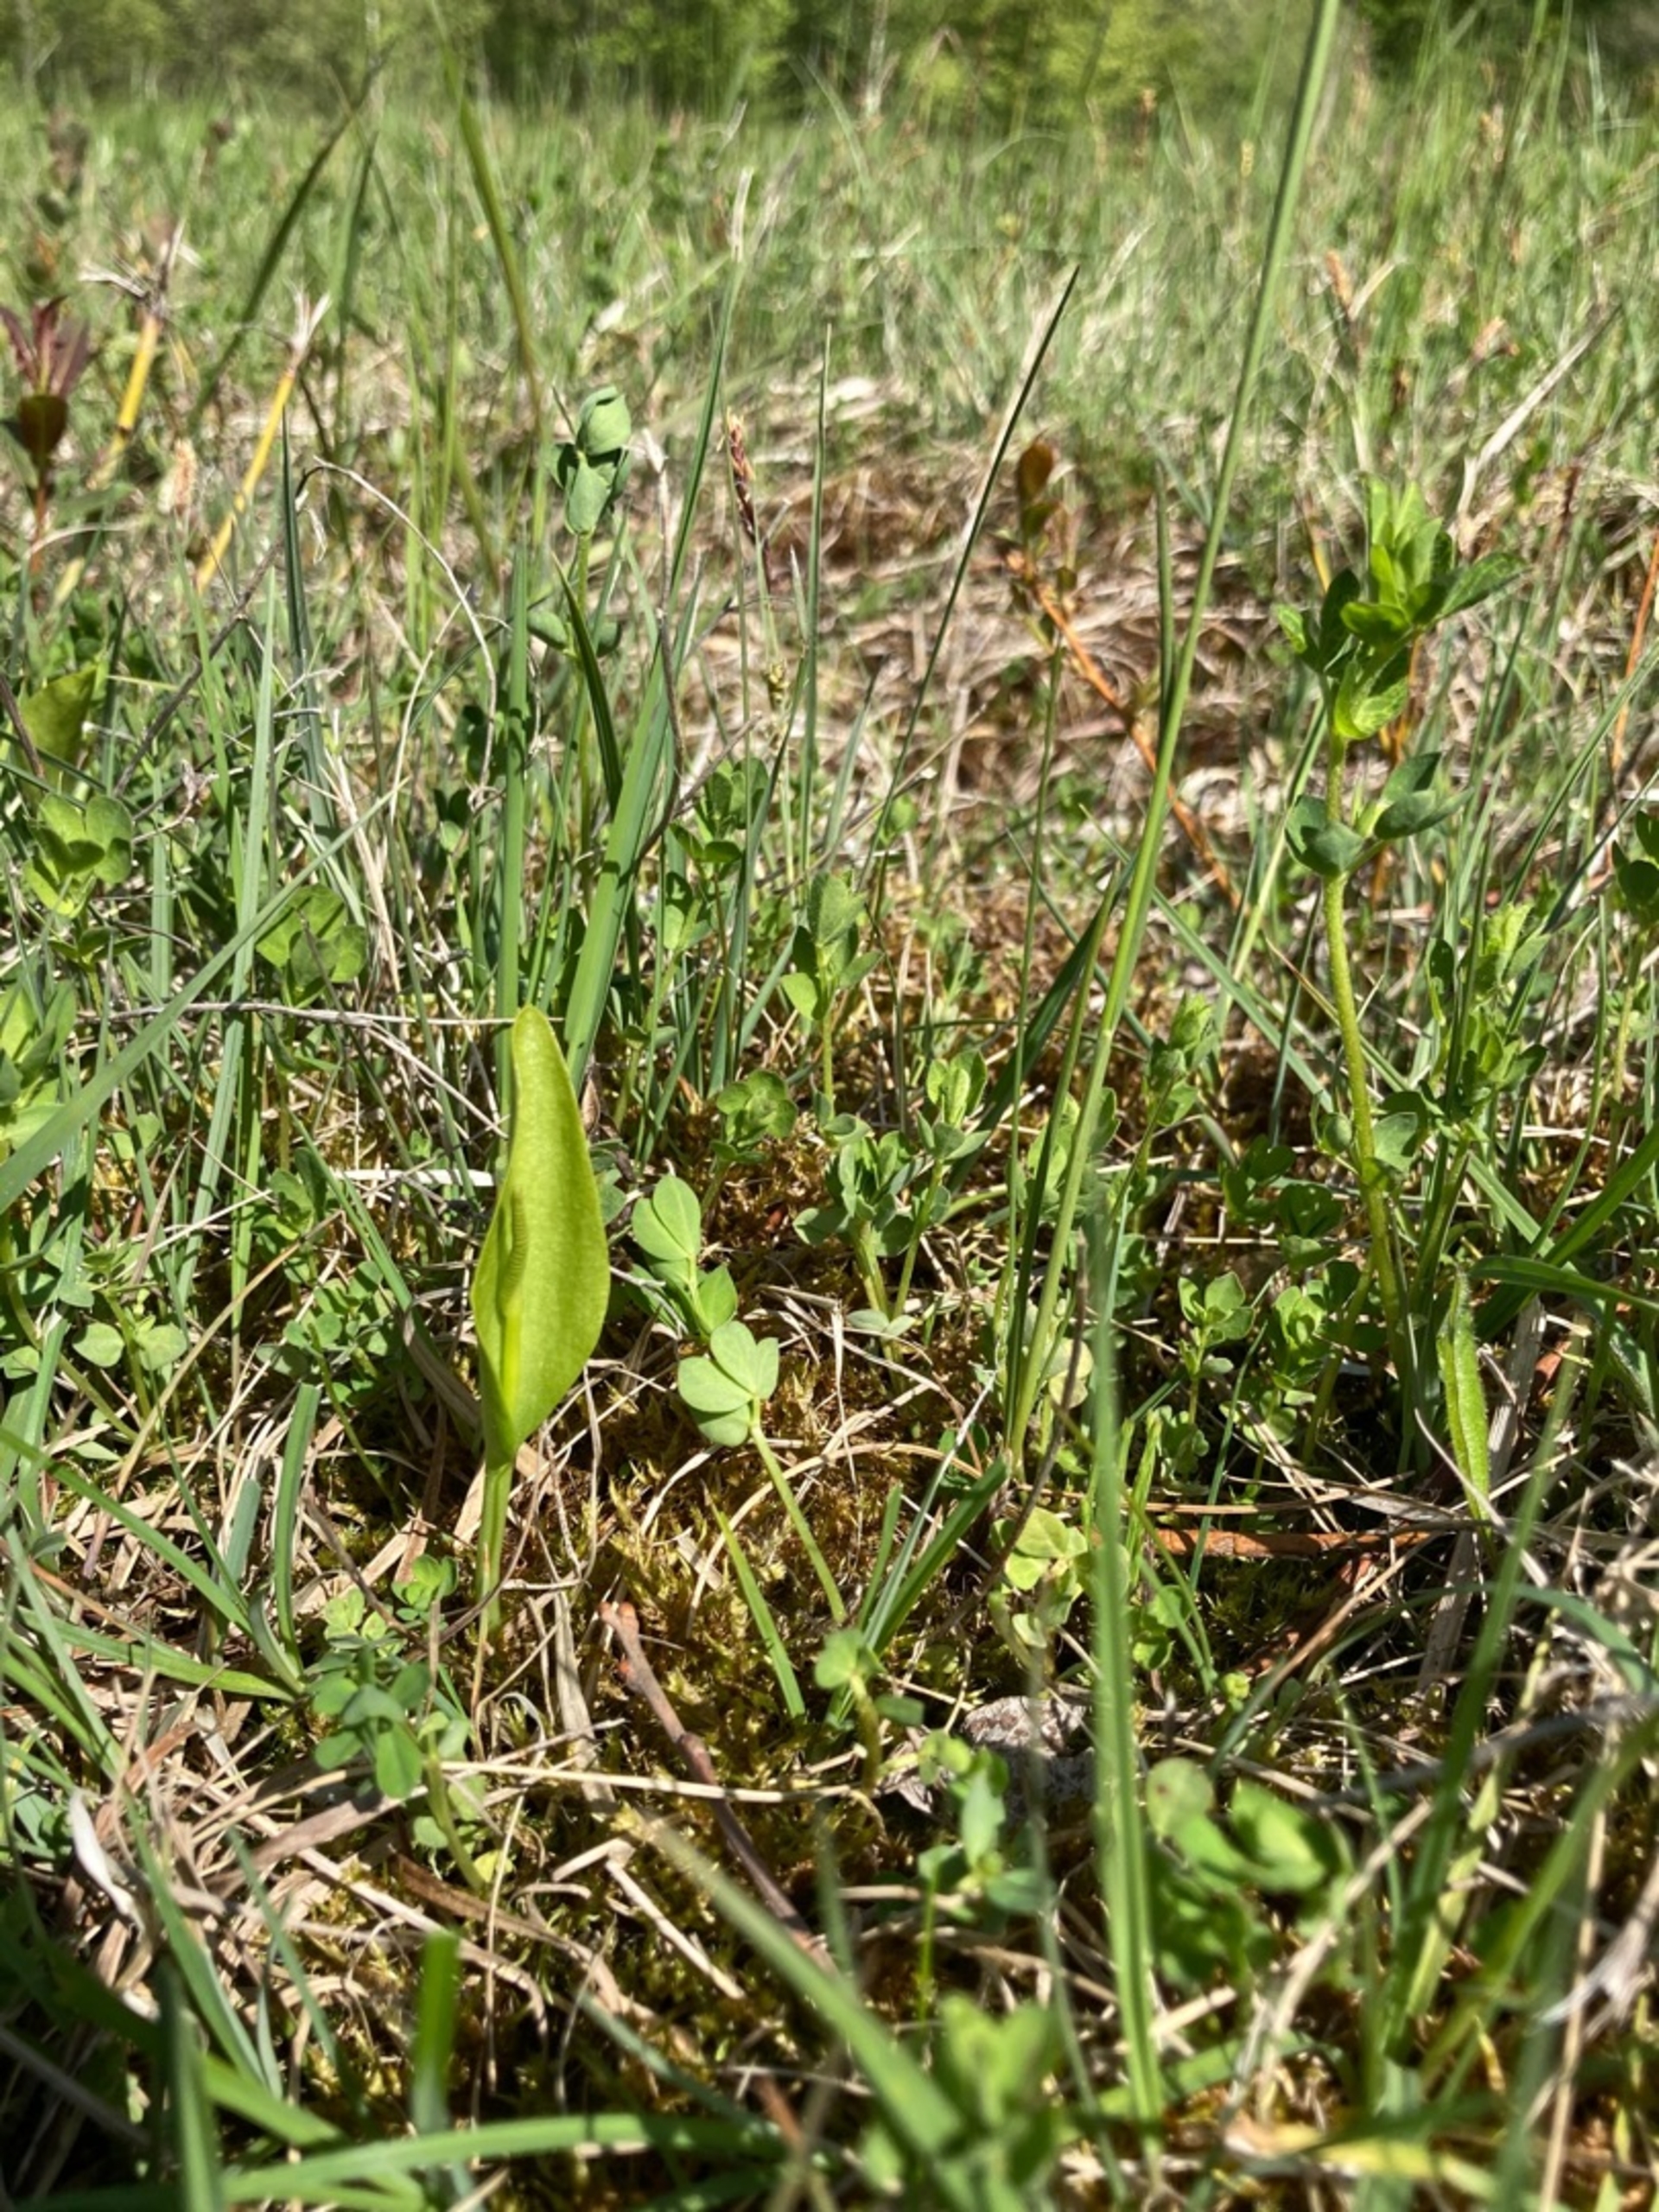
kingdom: Plantae
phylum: Tracheophyta
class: Polypodiopsida
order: Ophioglossales
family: Ophioglossaceae
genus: Ophioglossum
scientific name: Ophioglossum vulgatum
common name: Slangetunge
